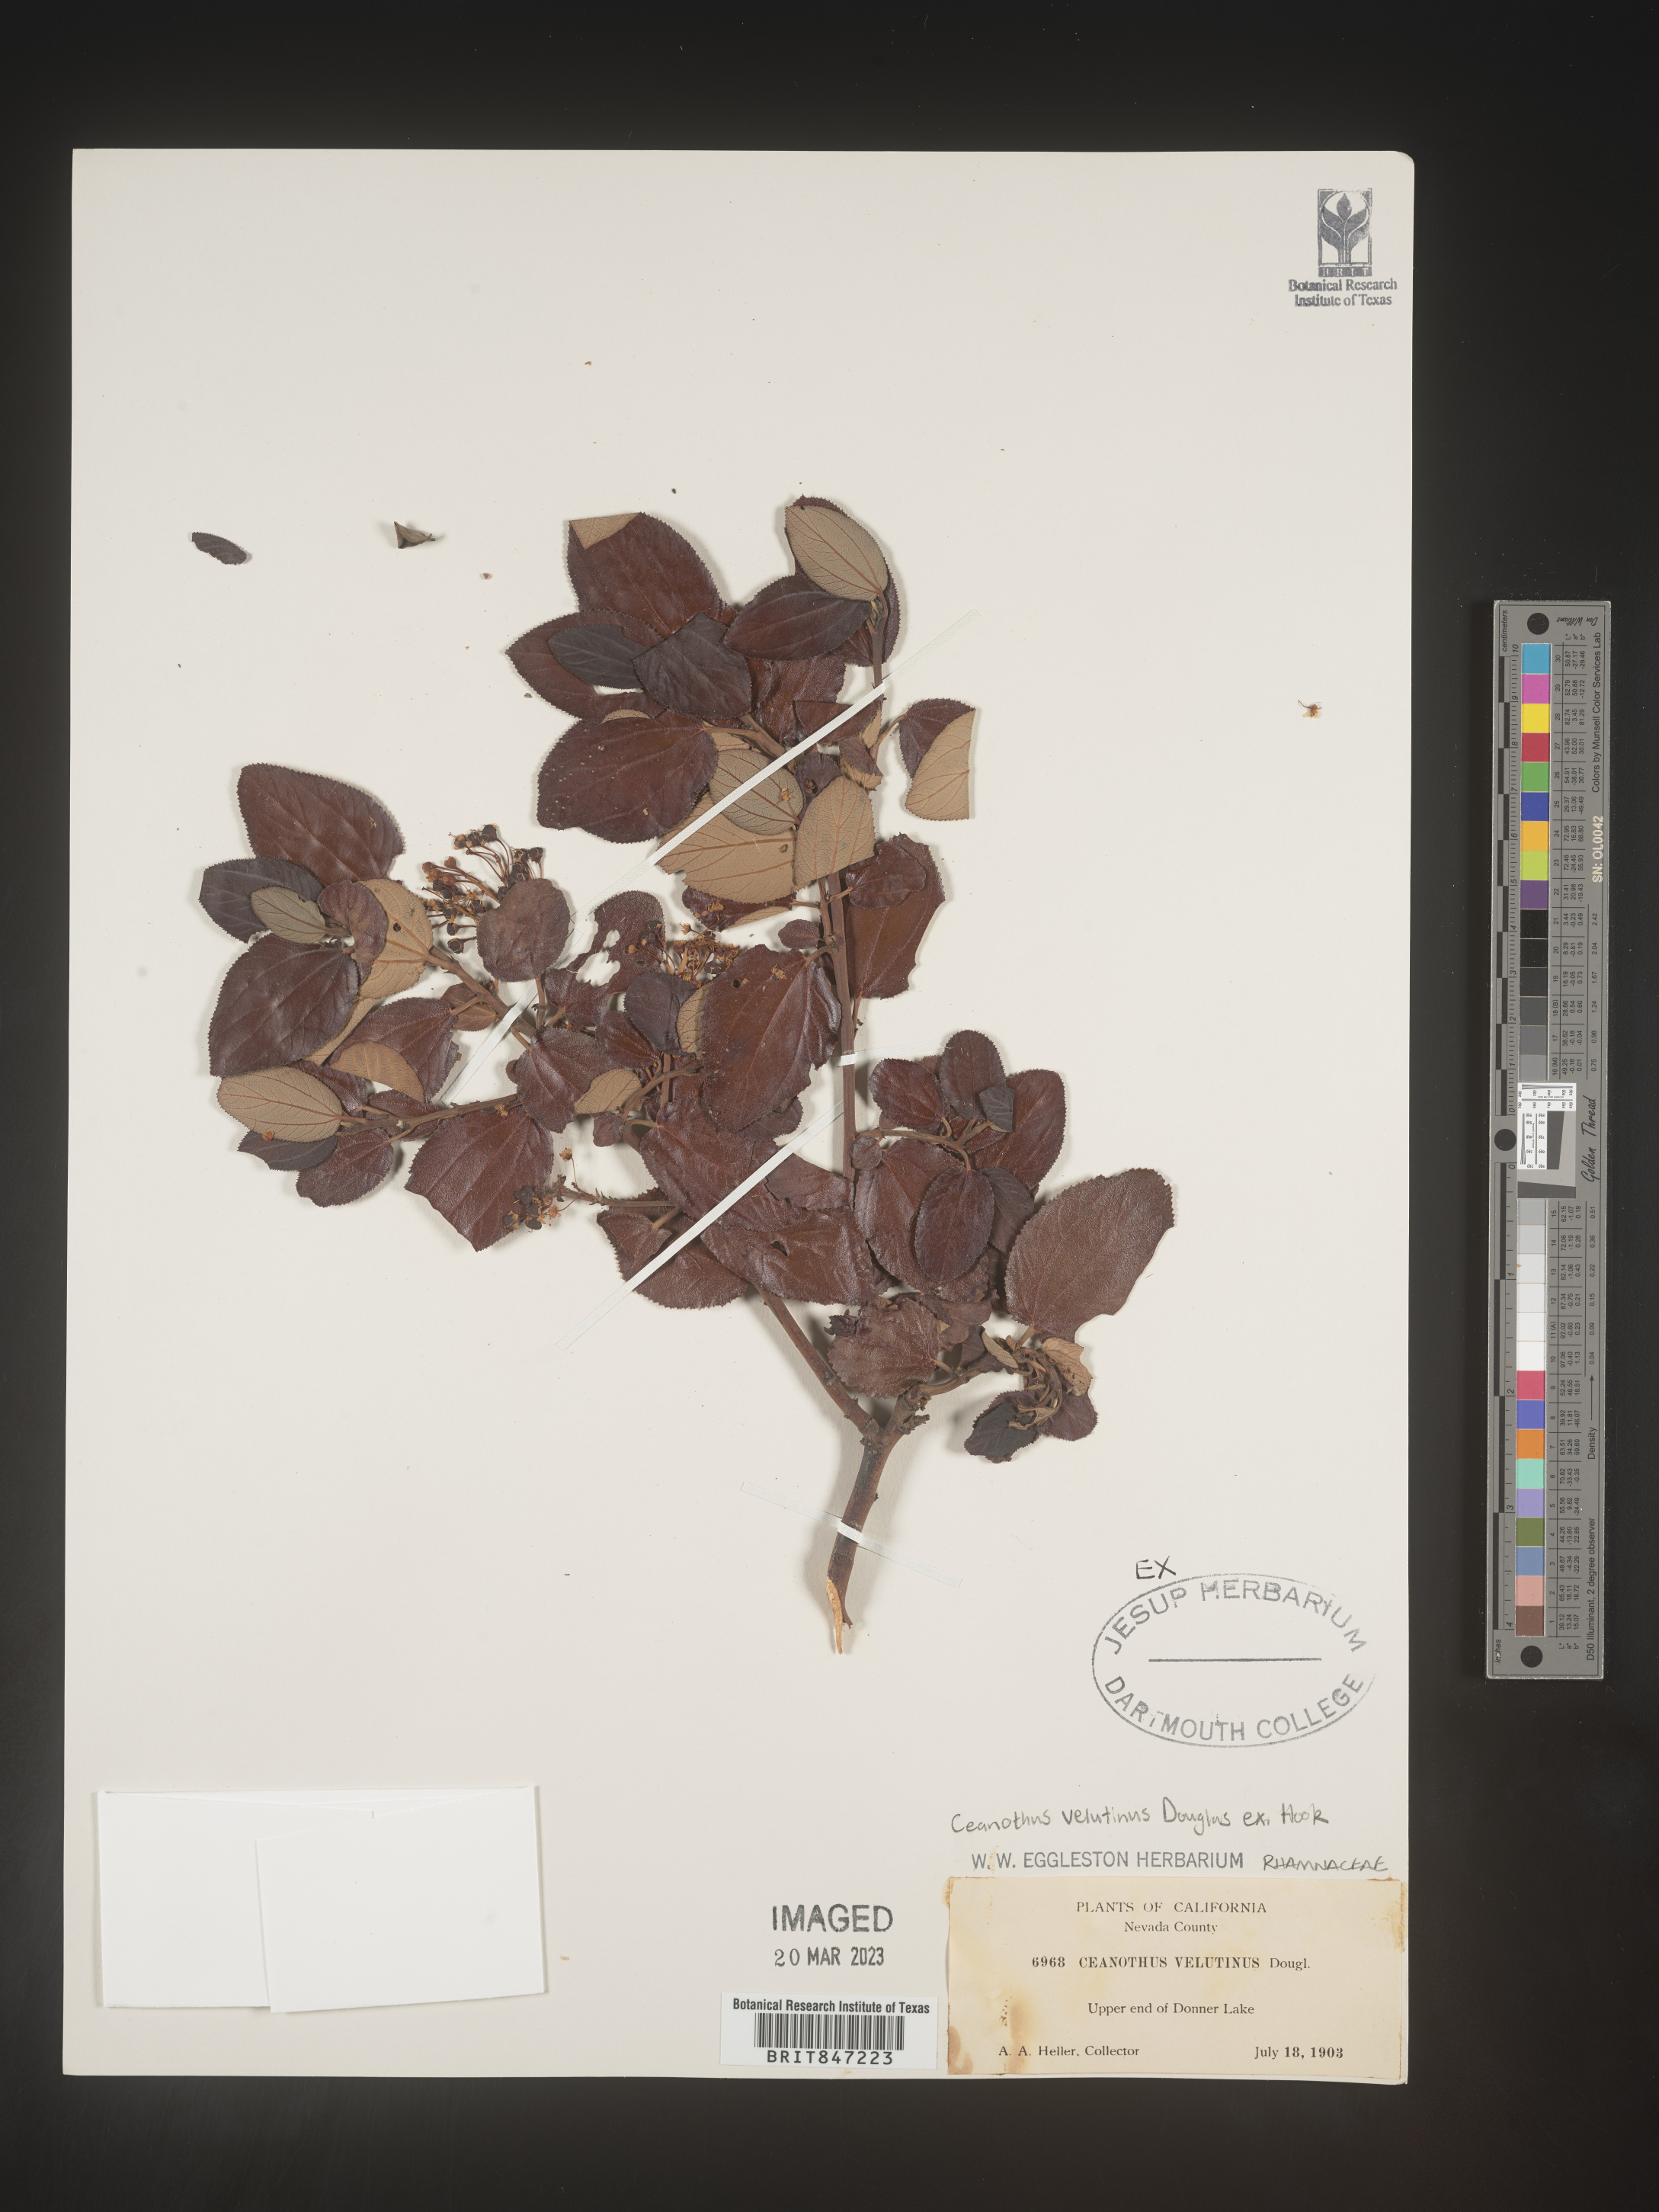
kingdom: Plantae
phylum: Tracheophyta
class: Magnoliopsida
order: Rosales
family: Rhamnaceae
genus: Ceanothus
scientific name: Ceanothus velutinus
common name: Snowbrush
